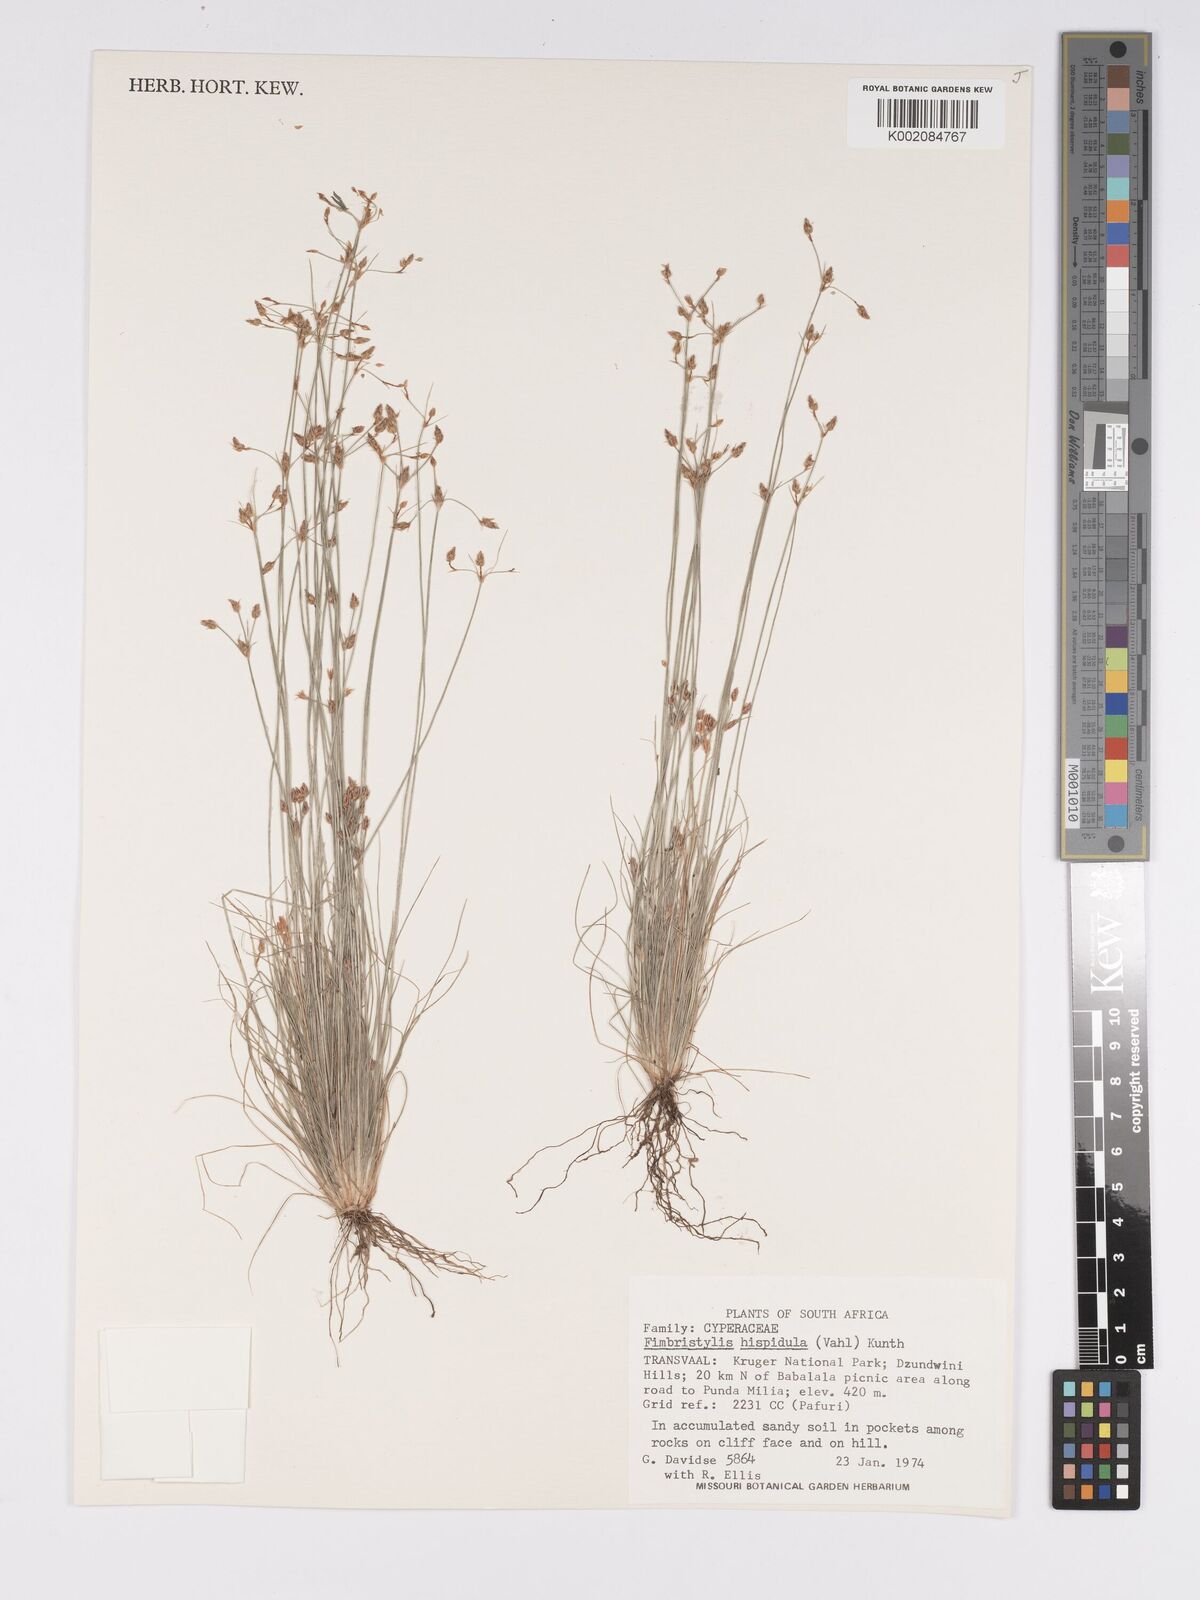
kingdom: Plantae
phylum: Tracheophyta
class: Liliopsida
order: Poales
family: Cyperaceae
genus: Bulbostylis
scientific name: Bulbostylis hispidula
